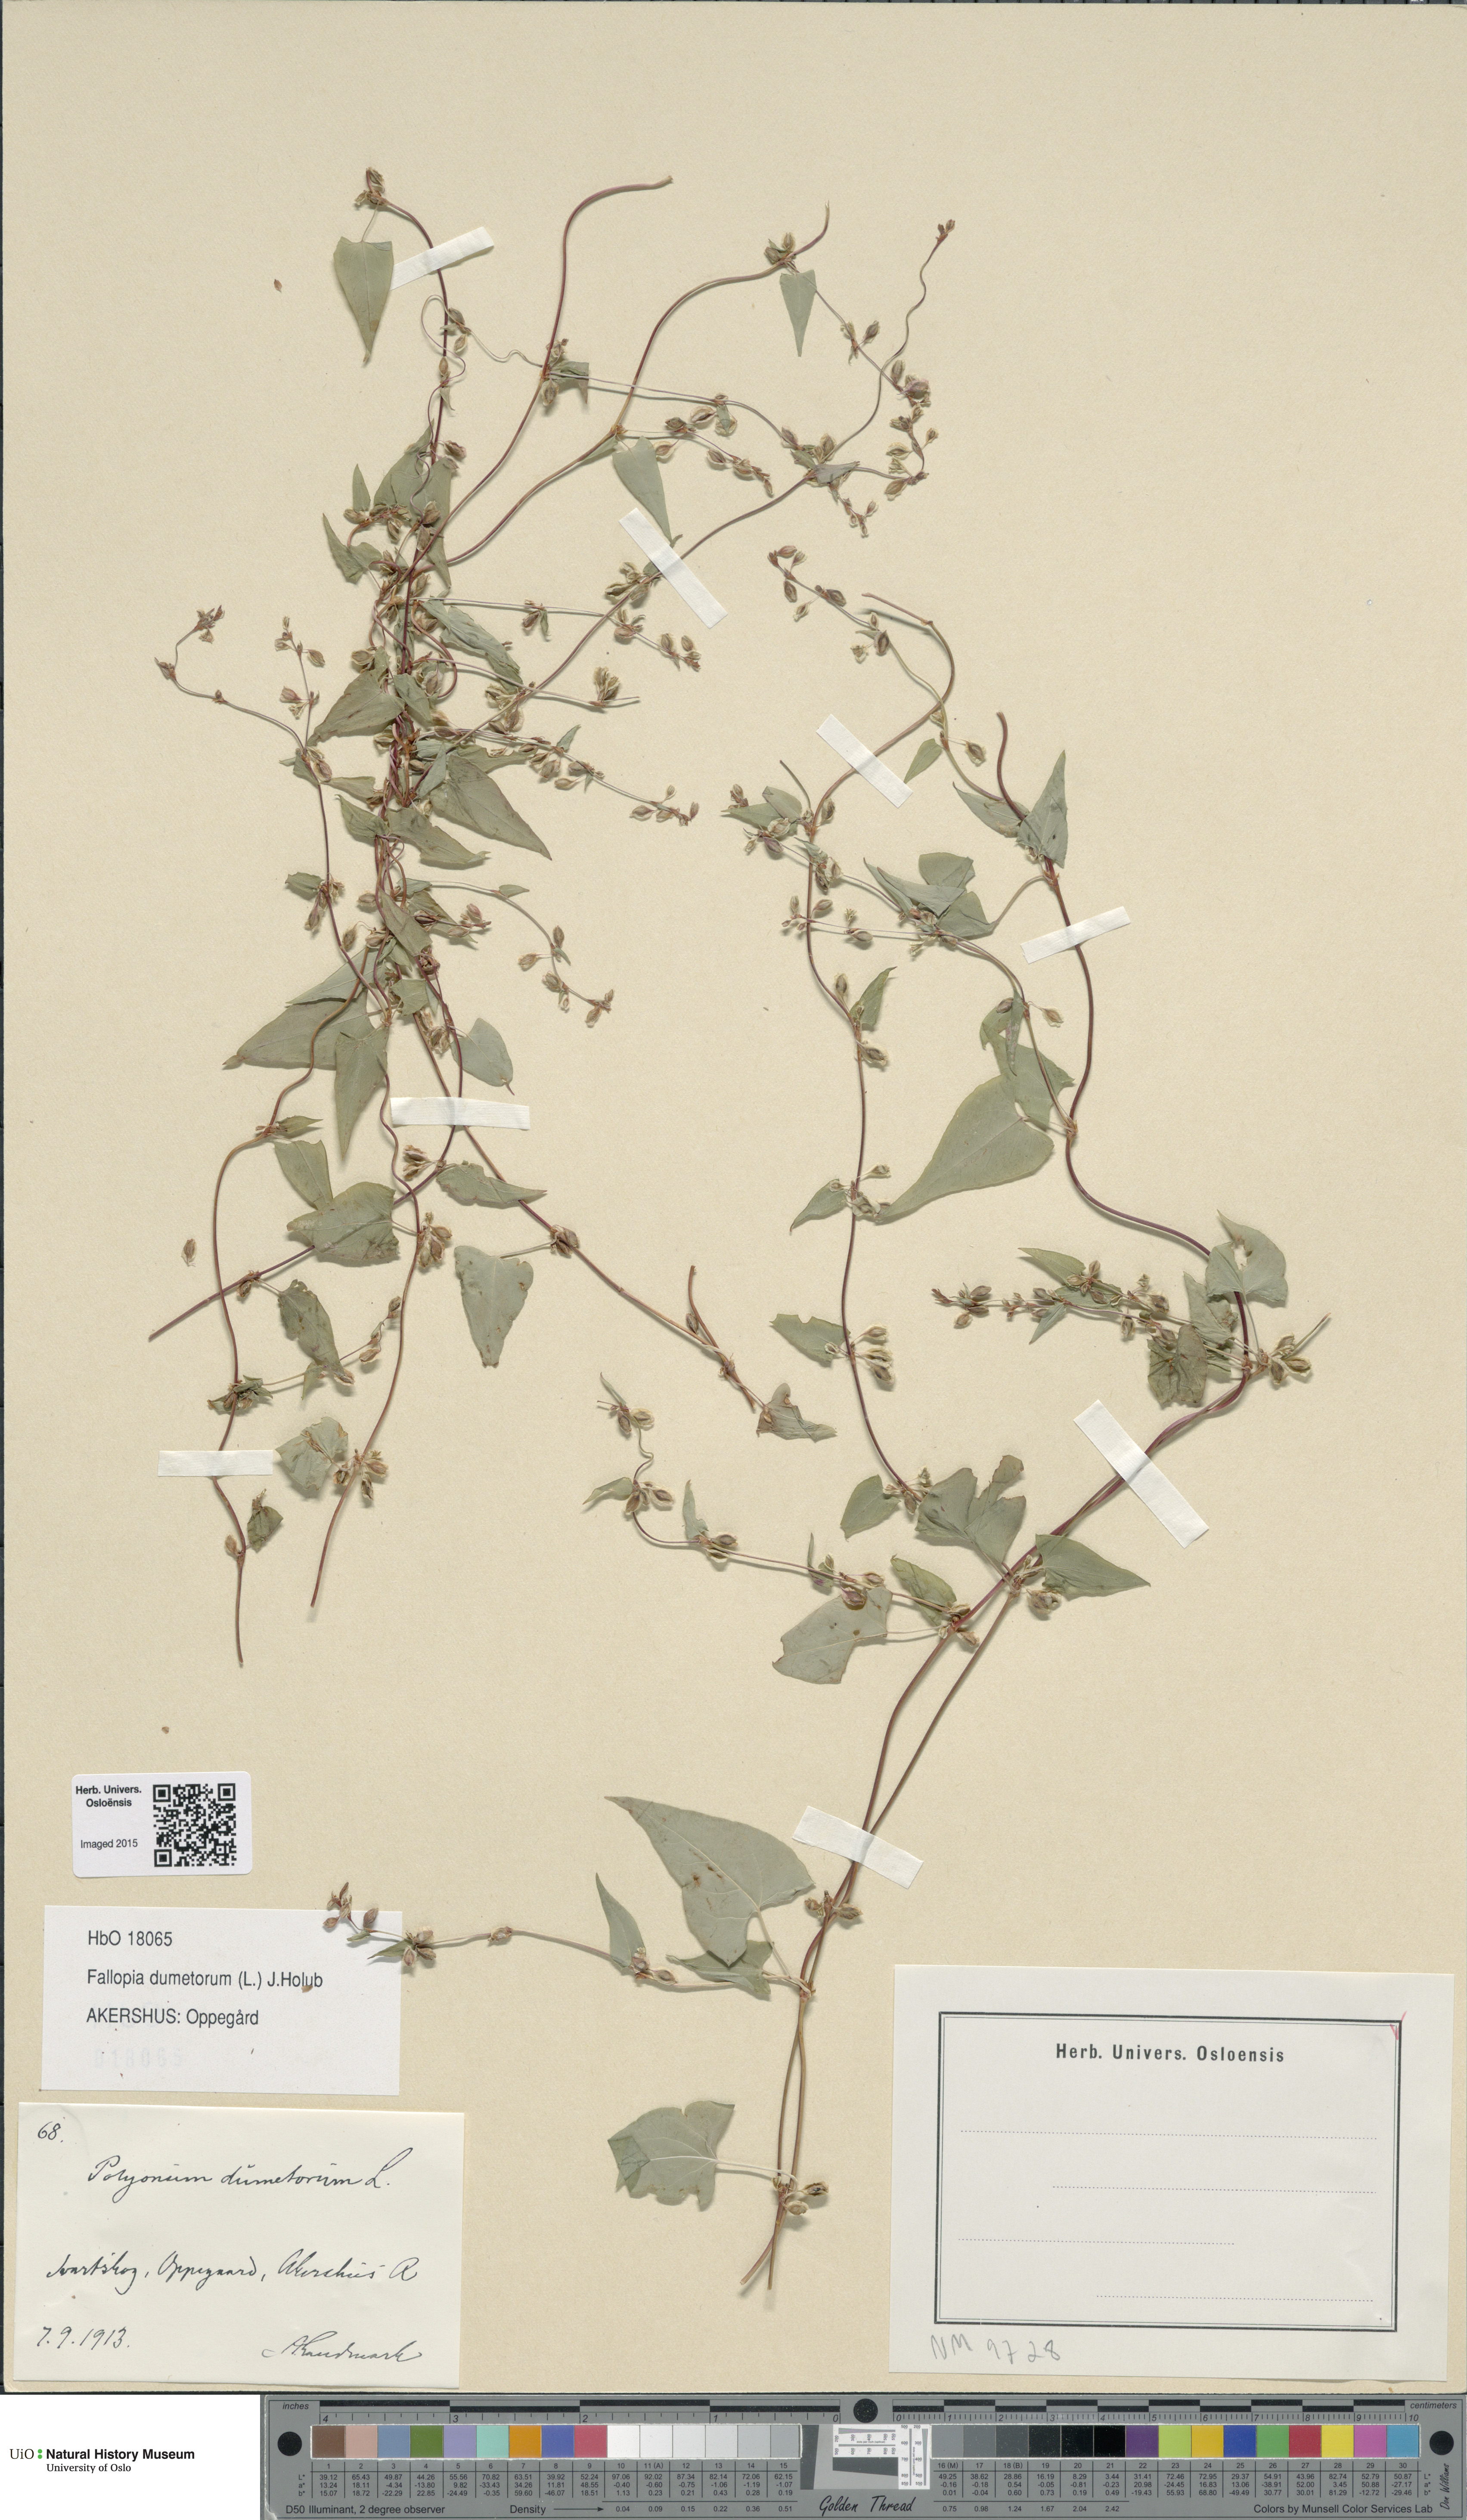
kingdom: Plantae
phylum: Tracheophyta
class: Magnoliopsida
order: Caryophyllales
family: Polygonaceae
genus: Fallopia
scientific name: Fallopia dumetorum
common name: Copse-bindweed
